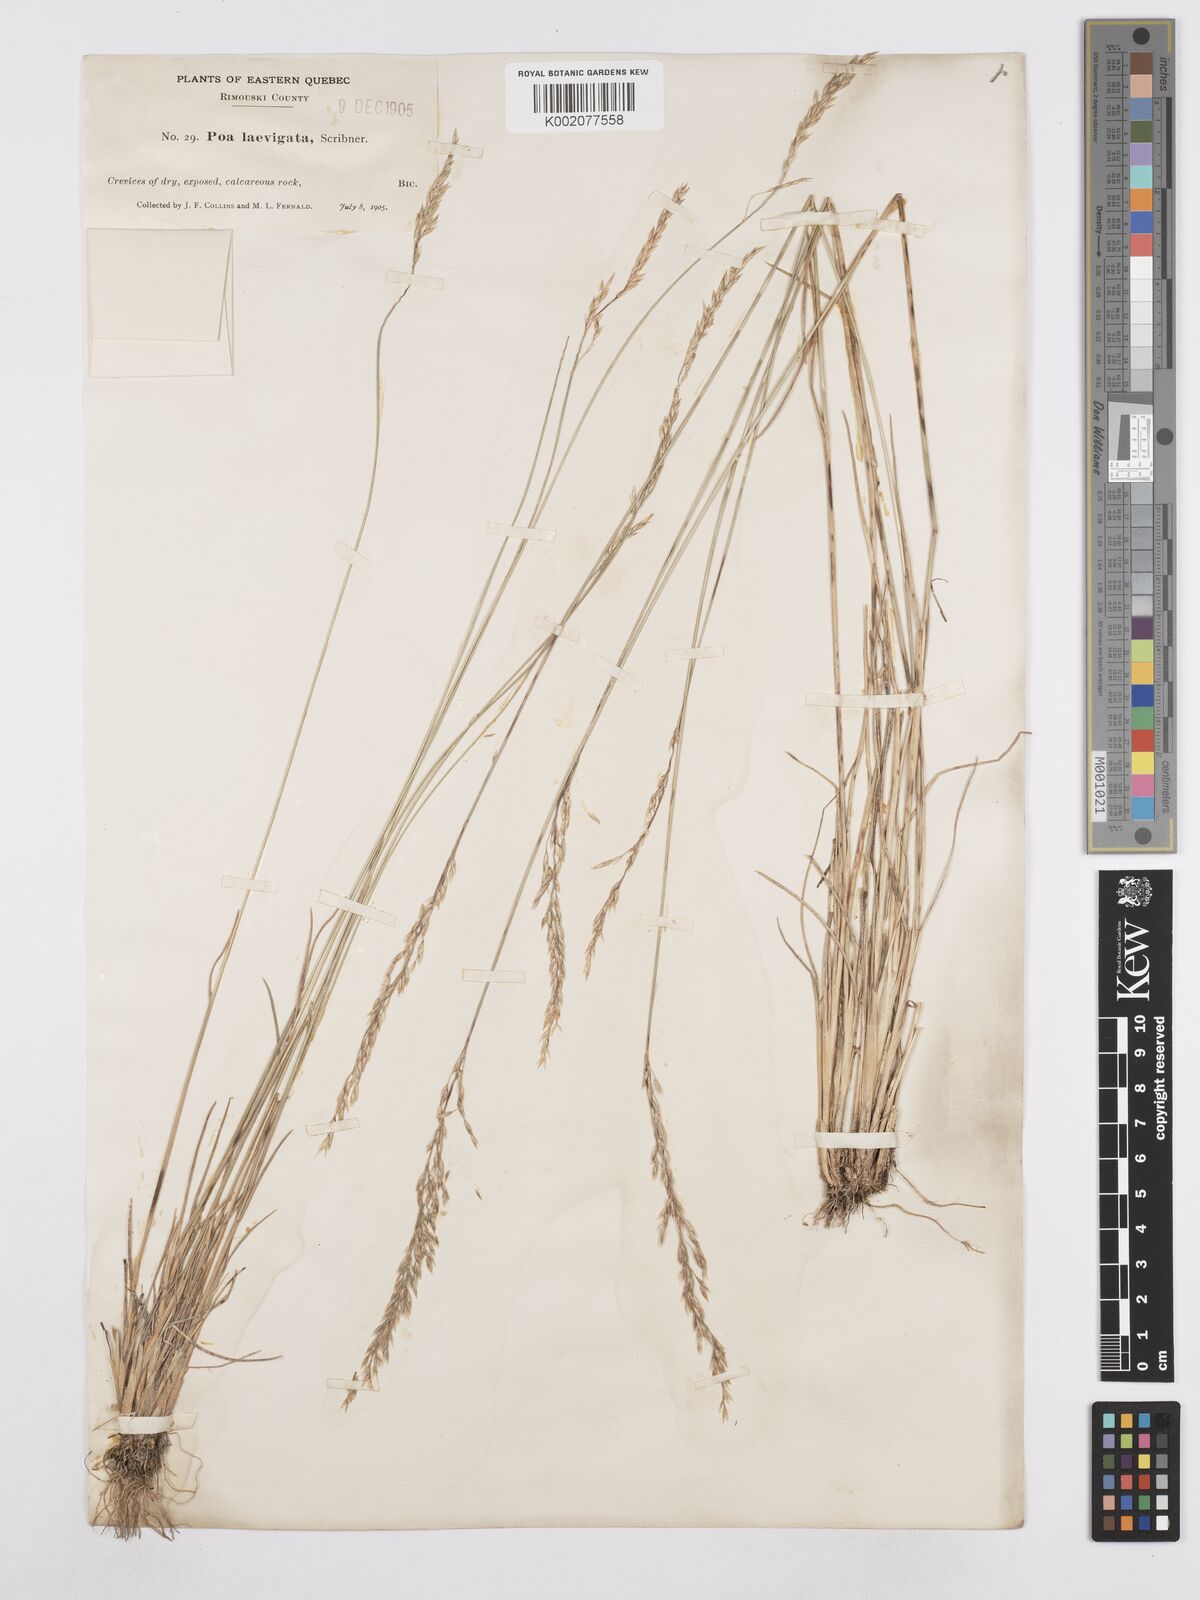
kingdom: Plantae
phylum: Tracheophyta
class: Liliopsida
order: Poales
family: Poaceae
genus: Poa
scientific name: Poa secunda
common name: Sandberg bluegrass
